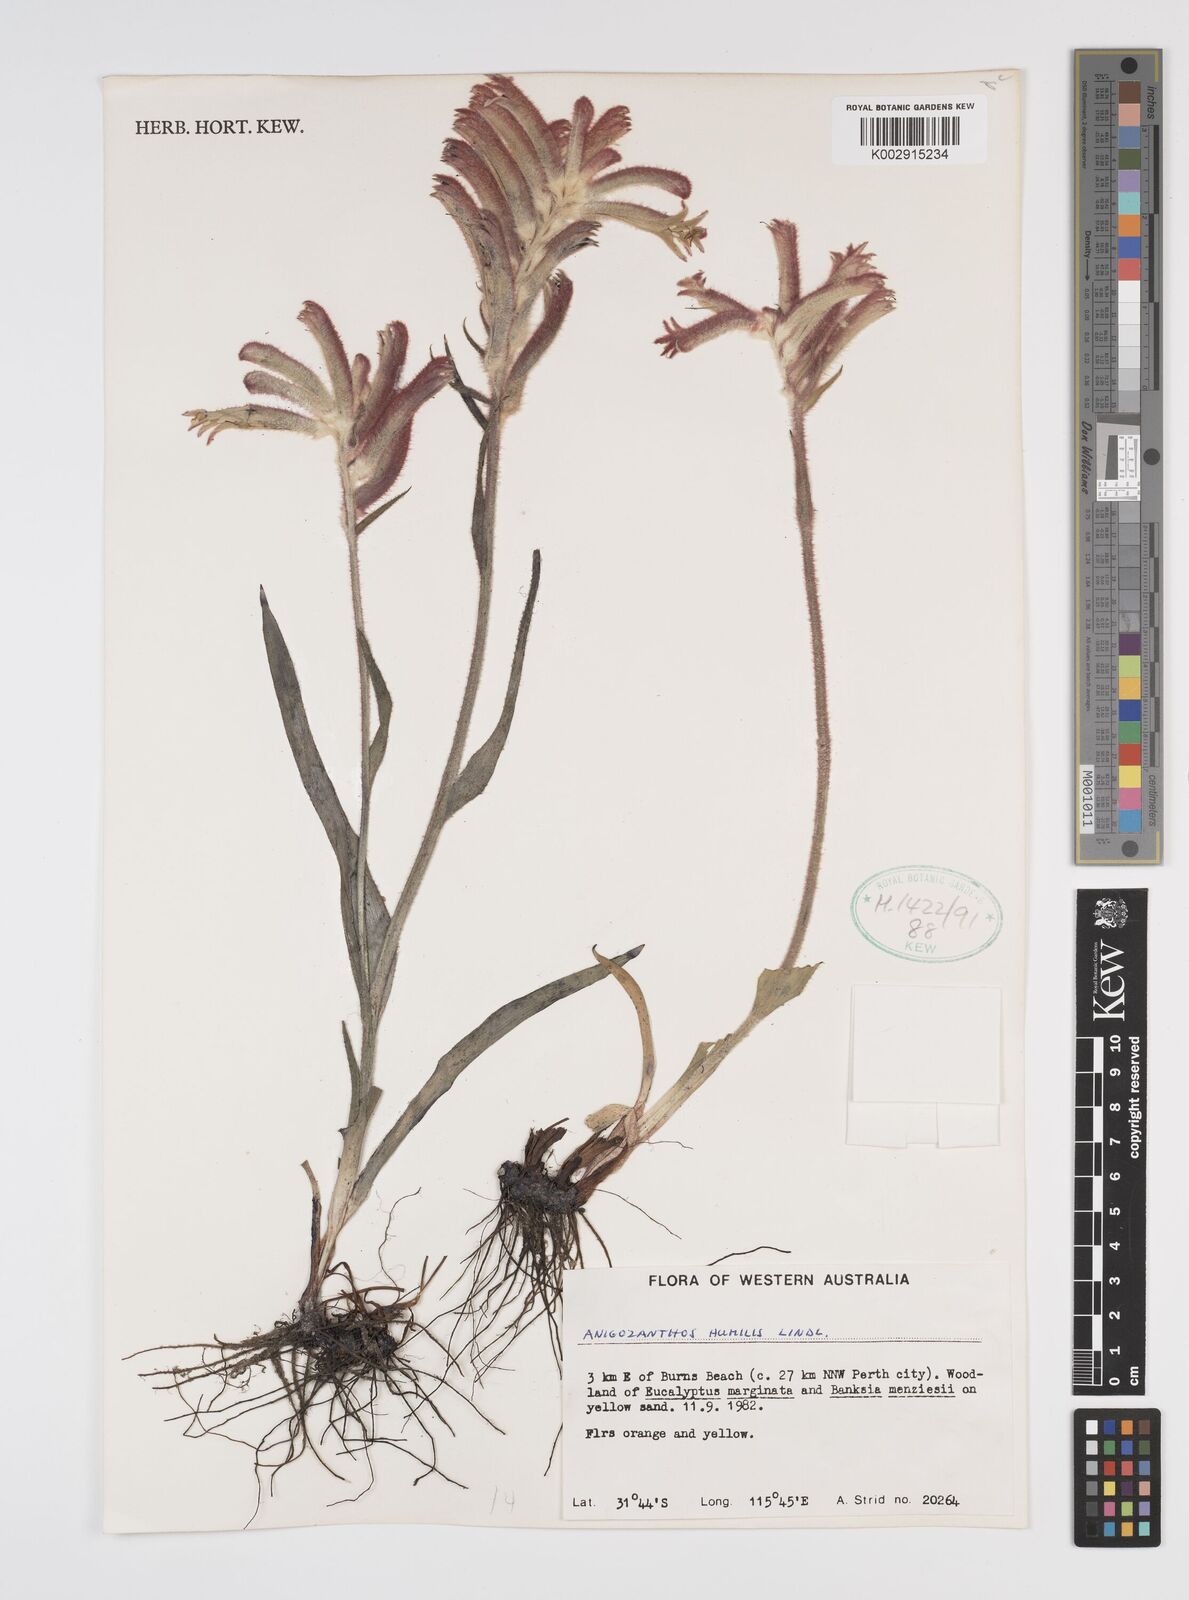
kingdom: Plantae
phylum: Tracheophyta
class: Liliopsida
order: Commelinales
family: Haemodoraceae
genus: Anigozanthos
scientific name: Anigozanthos humilis
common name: Cat's-paw
